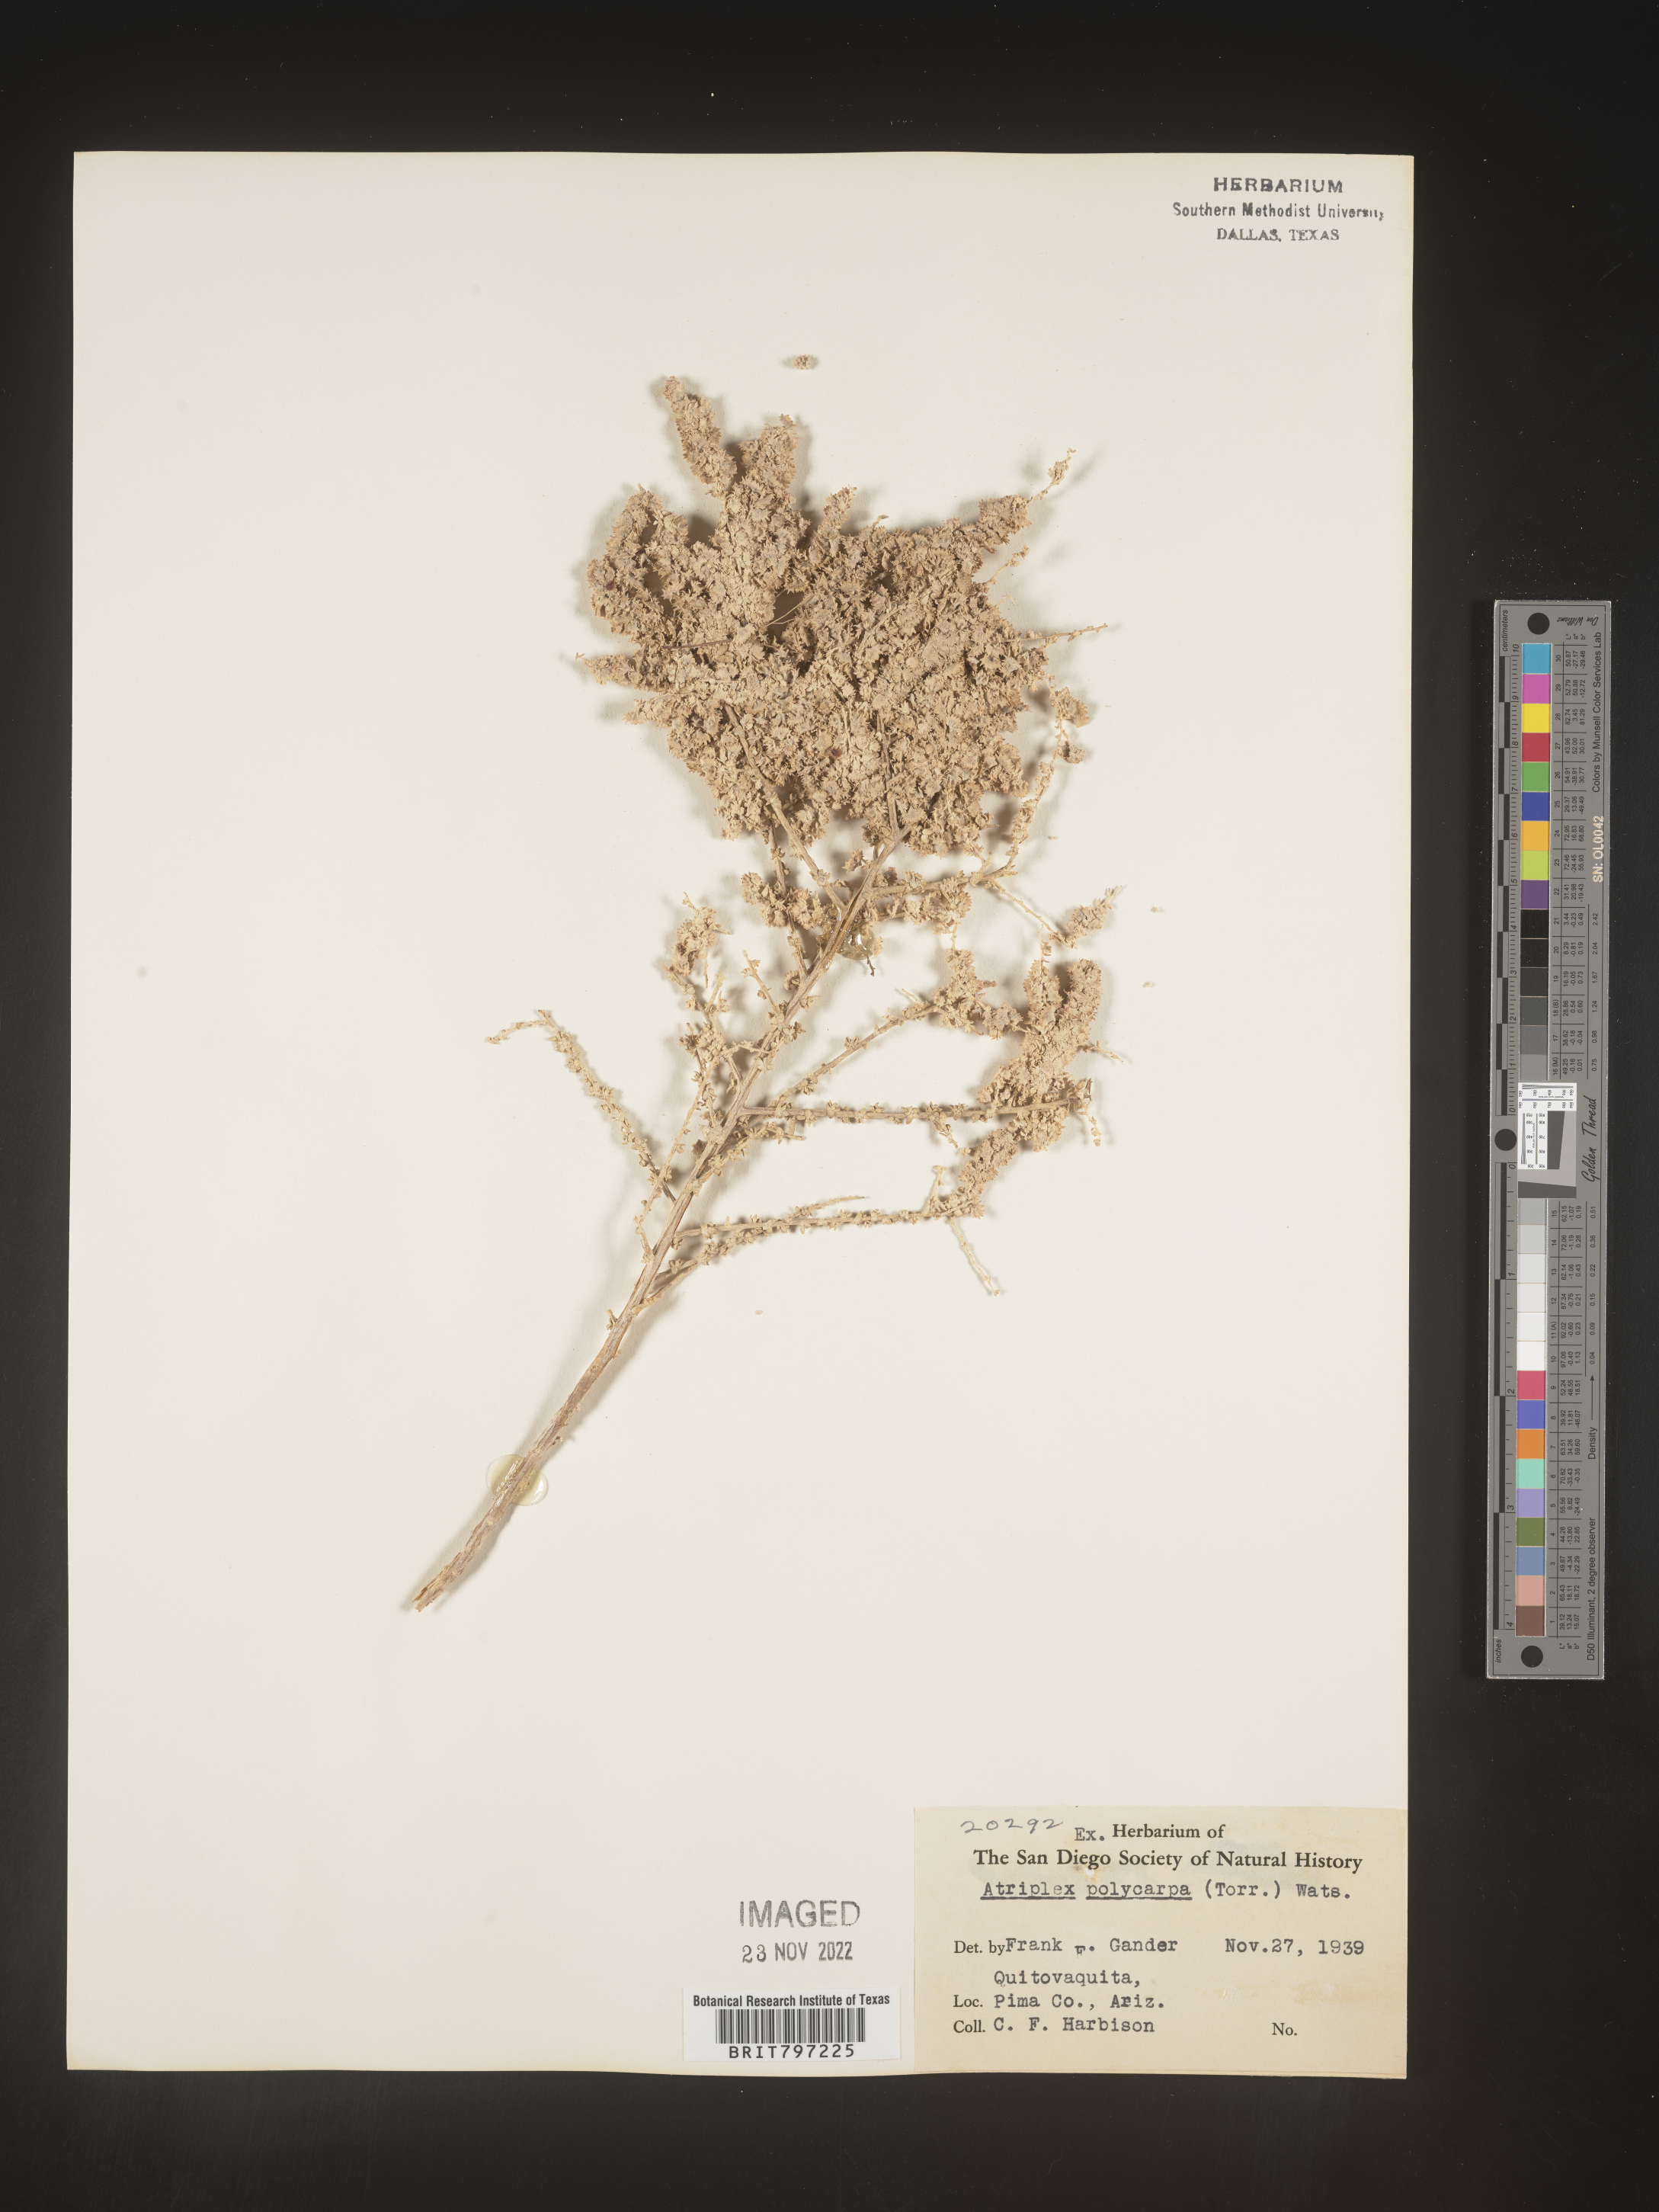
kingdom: Plantae
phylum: Tracheophyta
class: Magnoliopsida
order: Caryophyllales
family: Amaranthaceae
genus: Atriplex
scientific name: Atriplex polycarpa
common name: Desert saltbush
